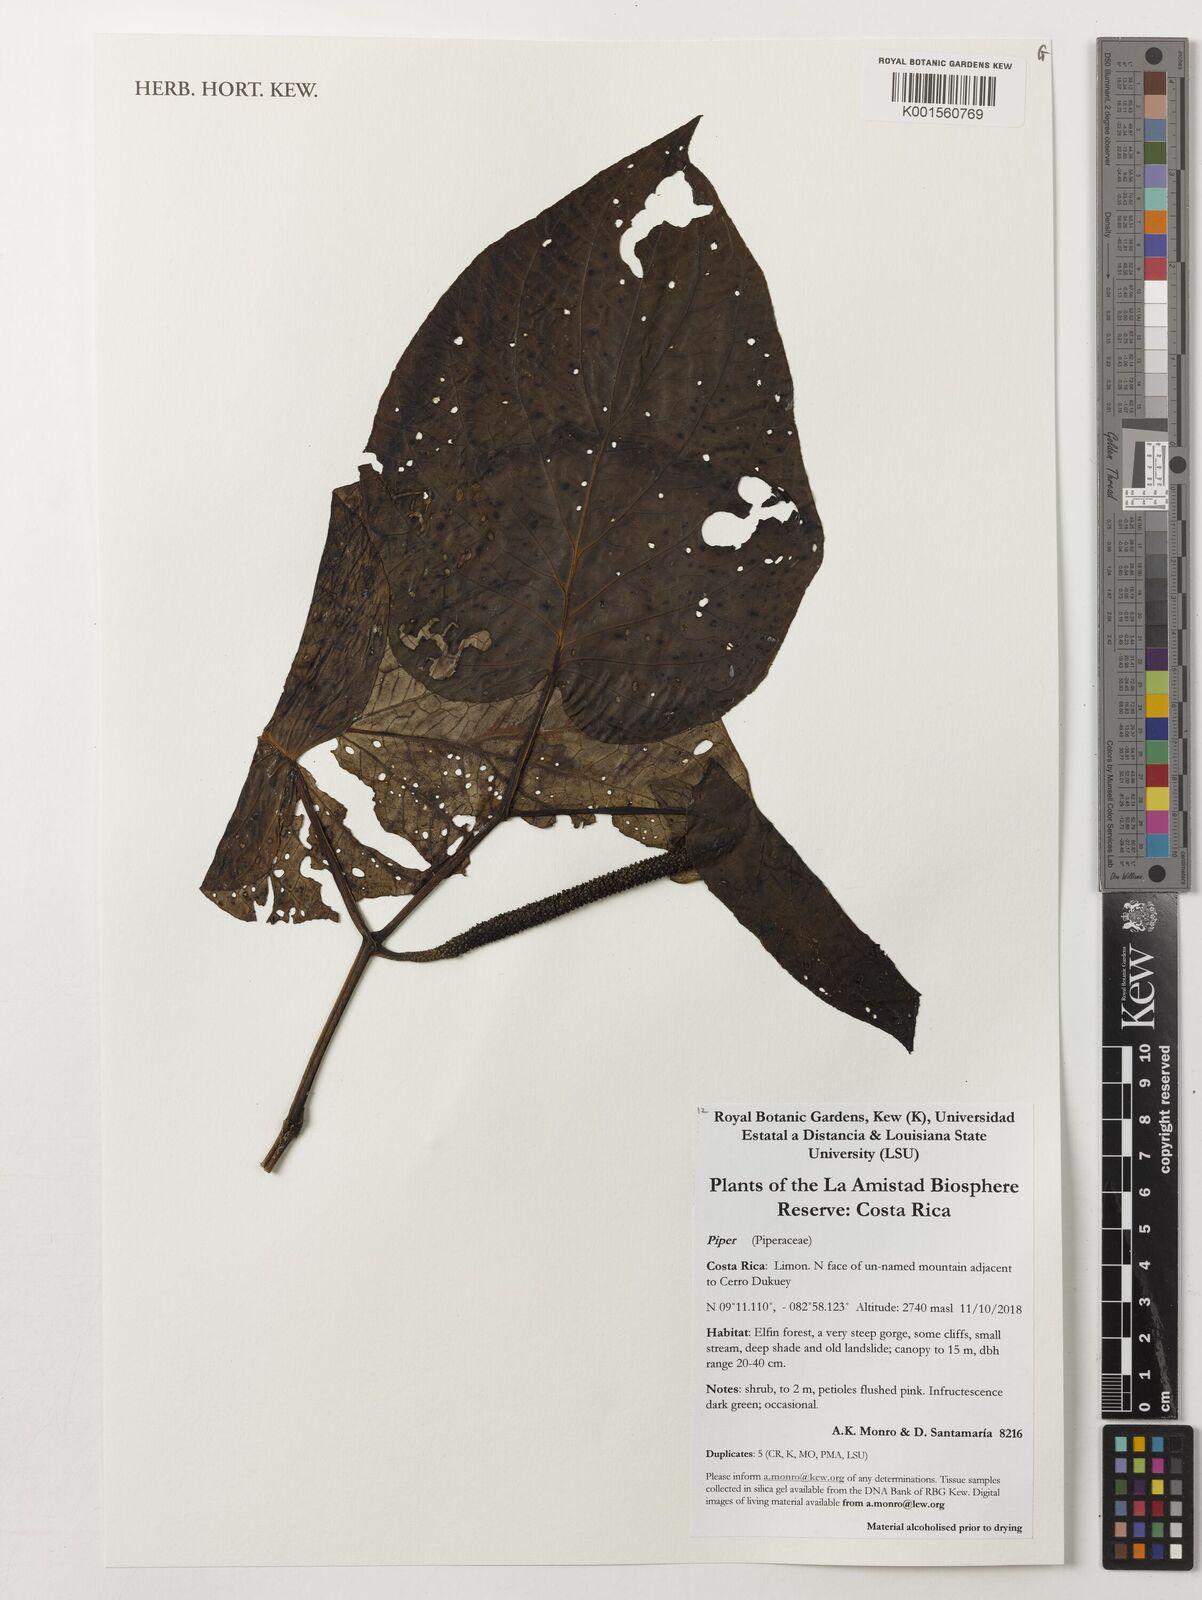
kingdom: Plantae
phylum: Tracheophyta
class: Magnoliopsida
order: Piperales
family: Piperaceae
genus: Piper
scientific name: Piper
